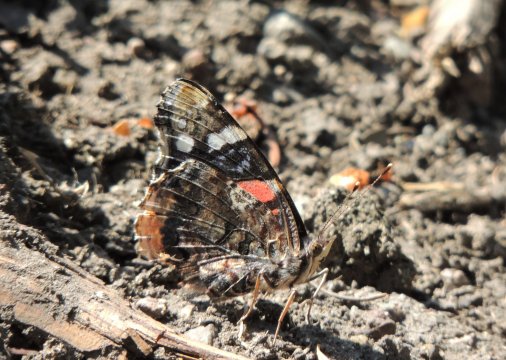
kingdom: Animalia
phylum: Arthropoda
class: Insecta
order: Lepidoptera
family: Nymphalidae
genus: Vanessa
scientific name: Vanessa atalanta
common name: Red Admiral
